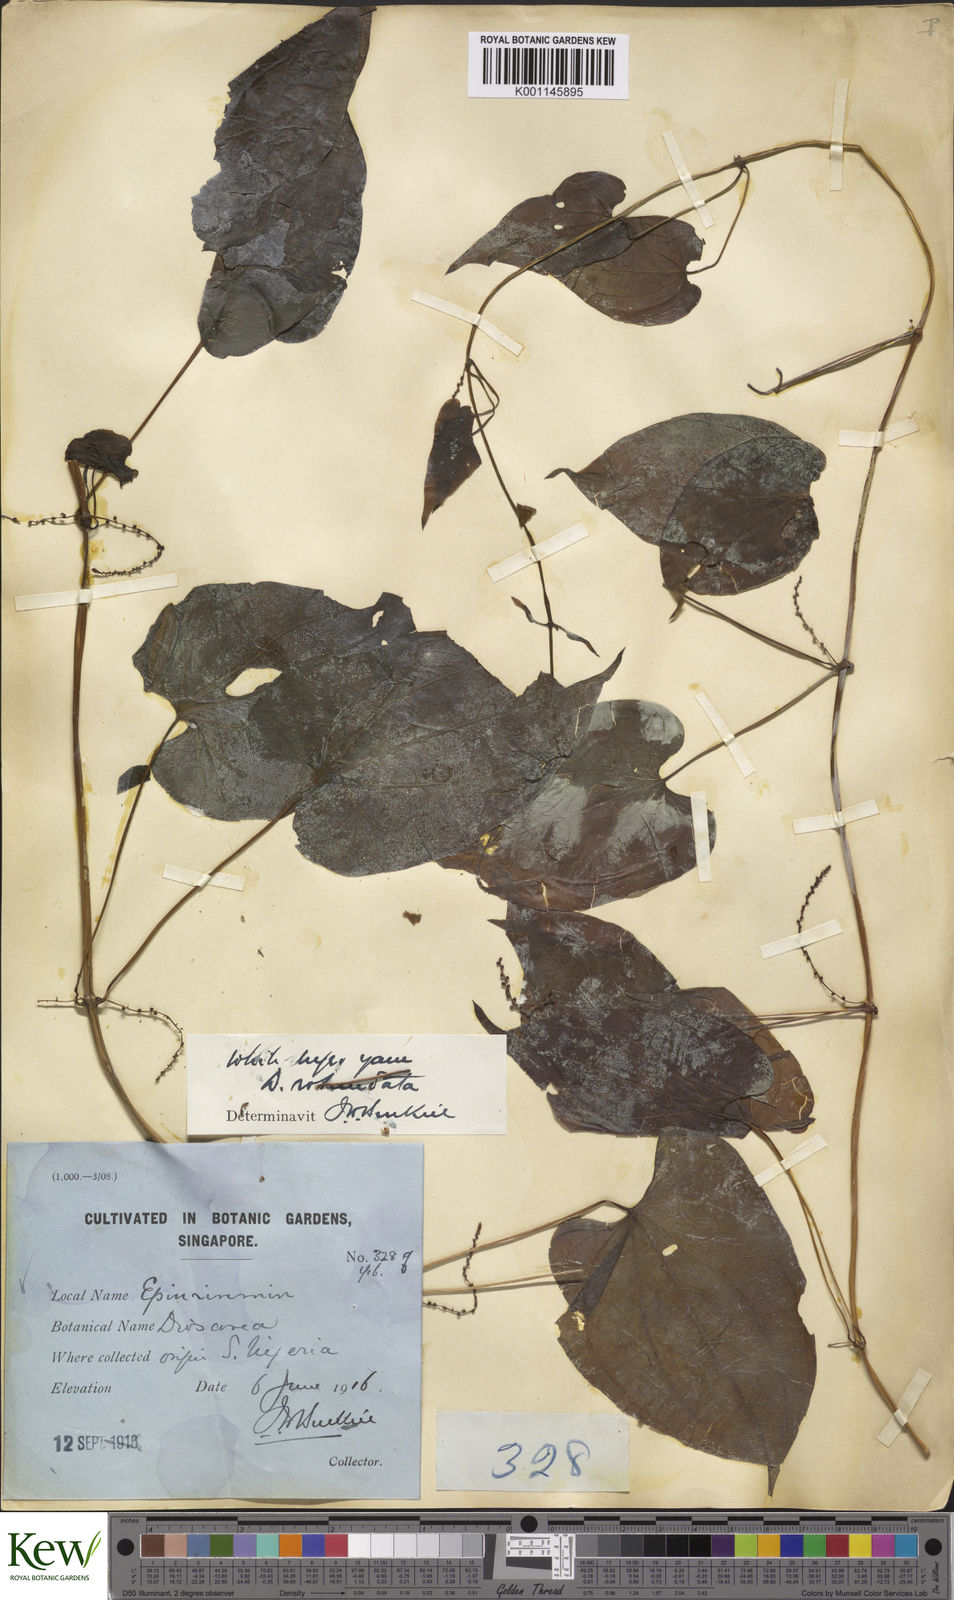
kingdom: Plantae
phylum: Tracheophyta
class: Liliopsida
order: Dioscoreales
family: Dioscoreaceae
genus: Dioscorea
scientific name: Dioscorea cayenensis
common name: Attoto yam
